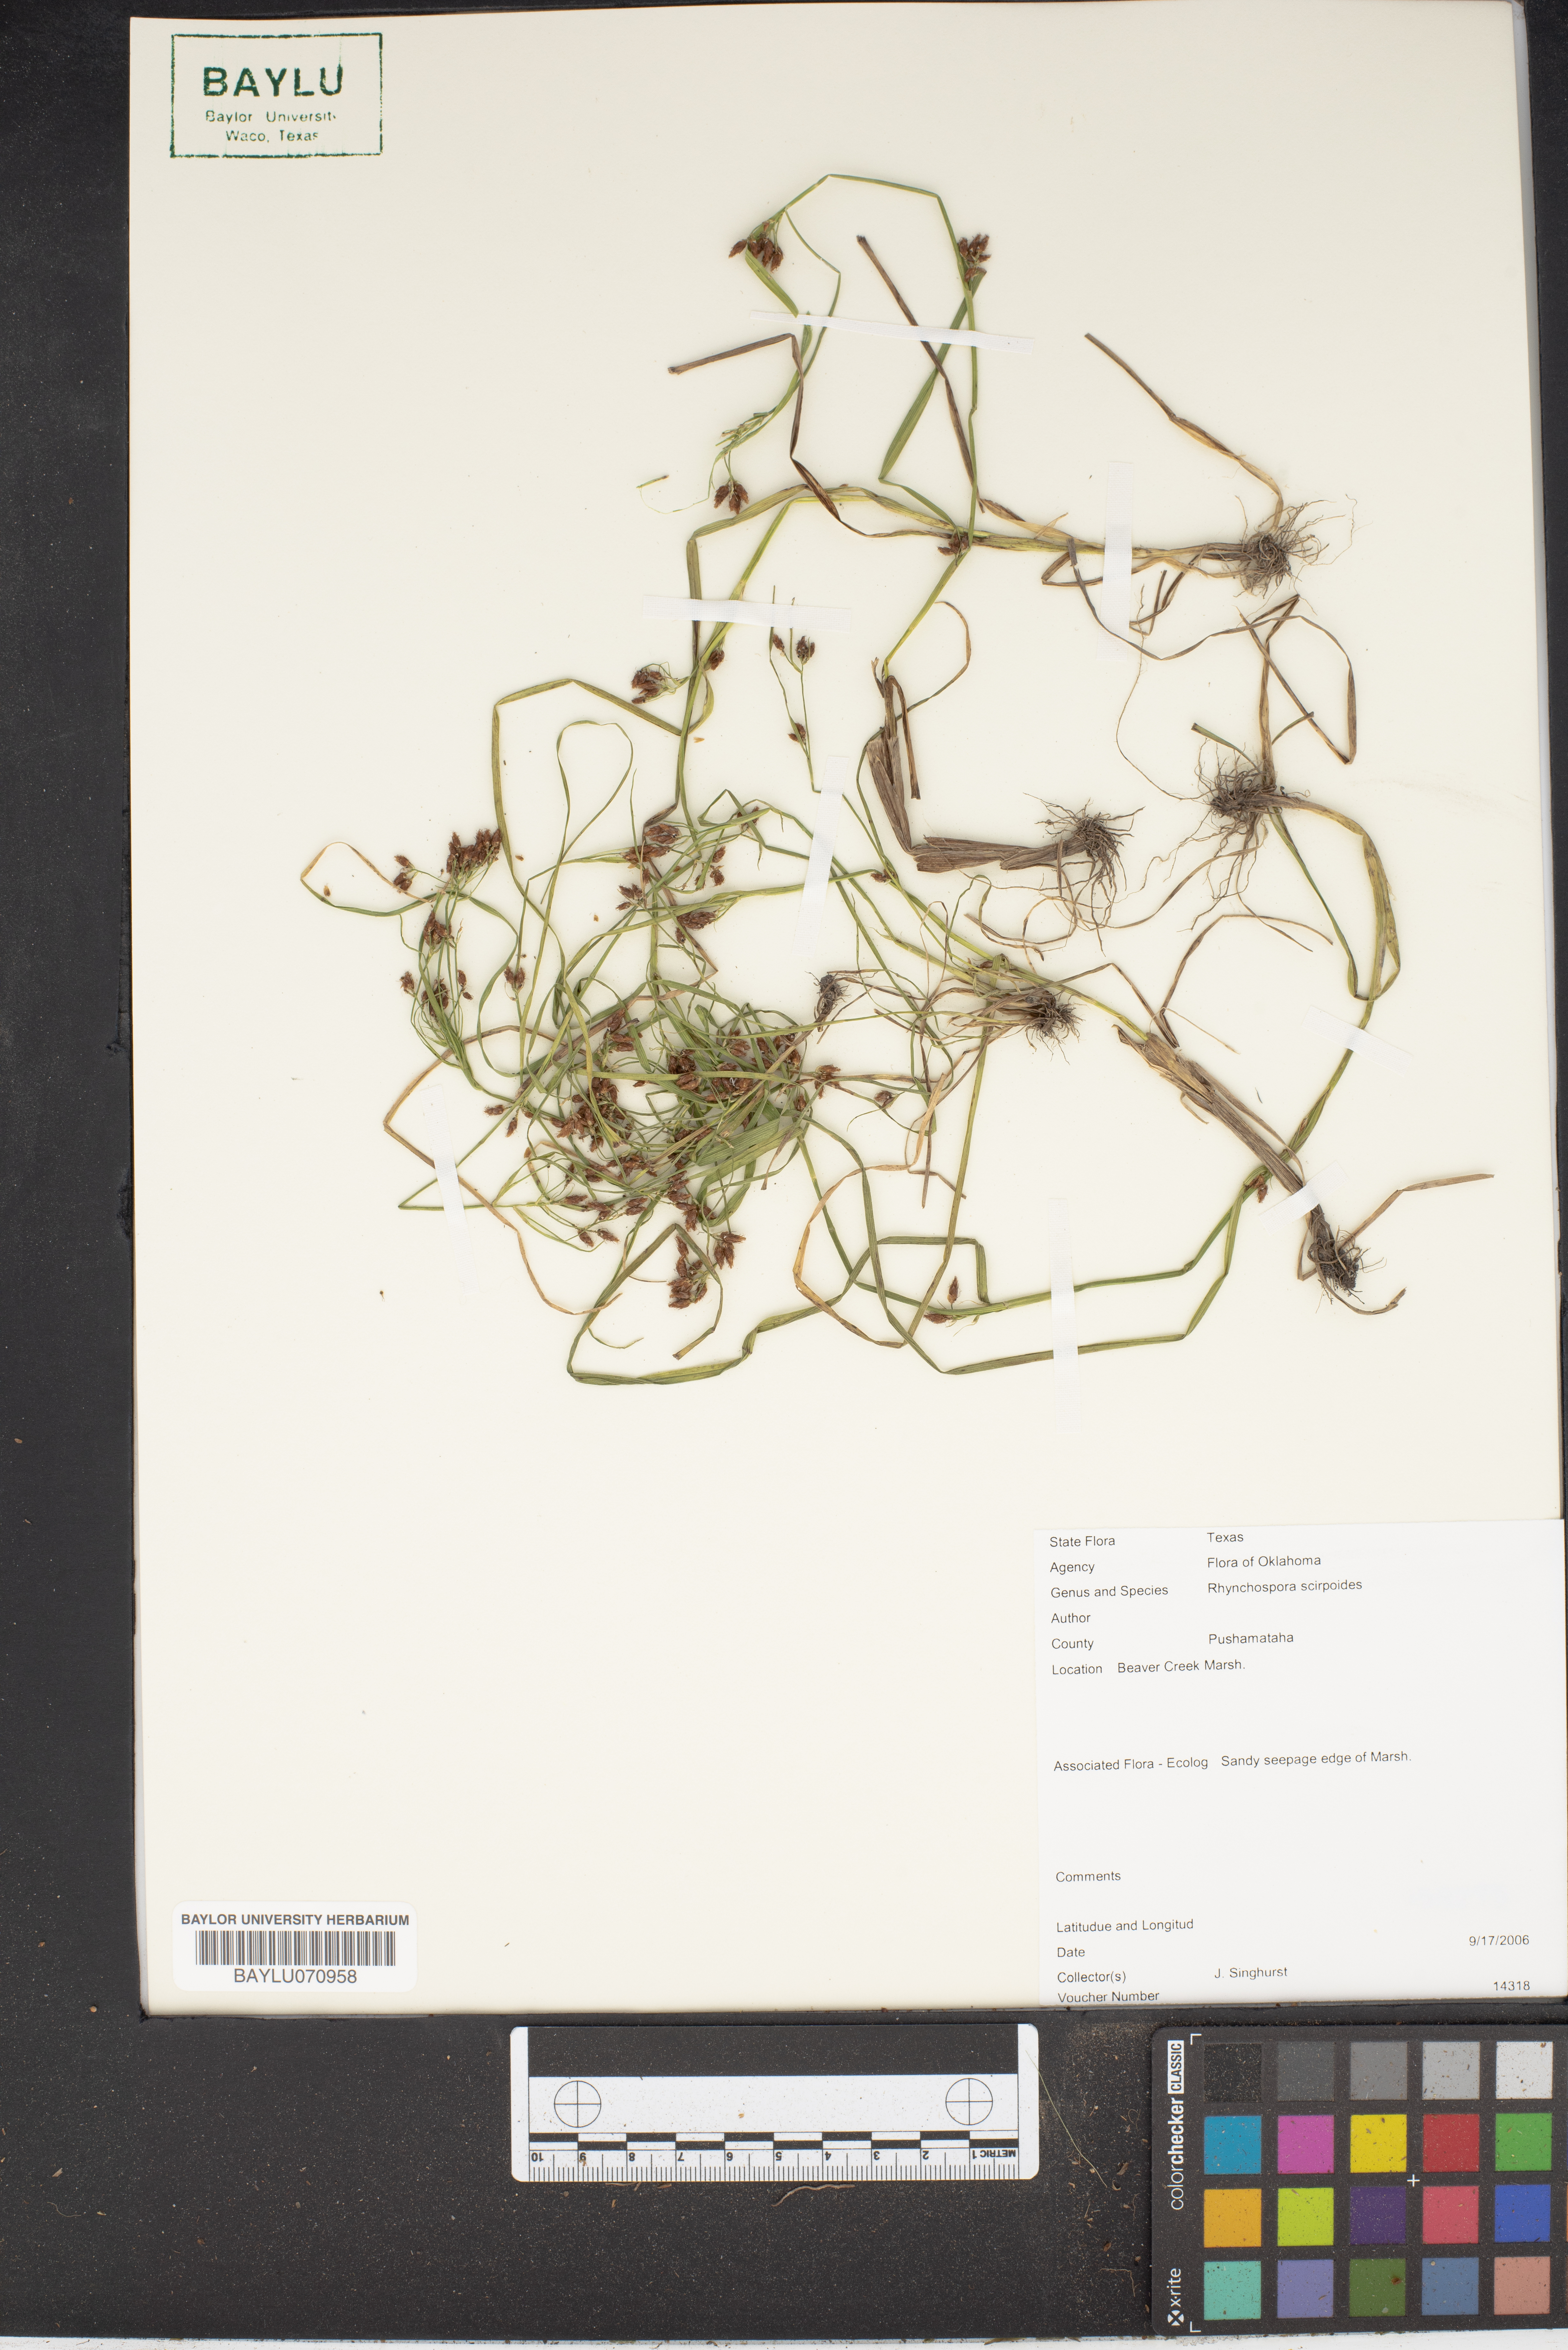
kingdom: Plantae
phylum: Tracheophyta
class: Liliopsida
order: Poales
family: Cyperaceae
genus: Rhynchospora
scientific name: Rhynchospora scirpoides
